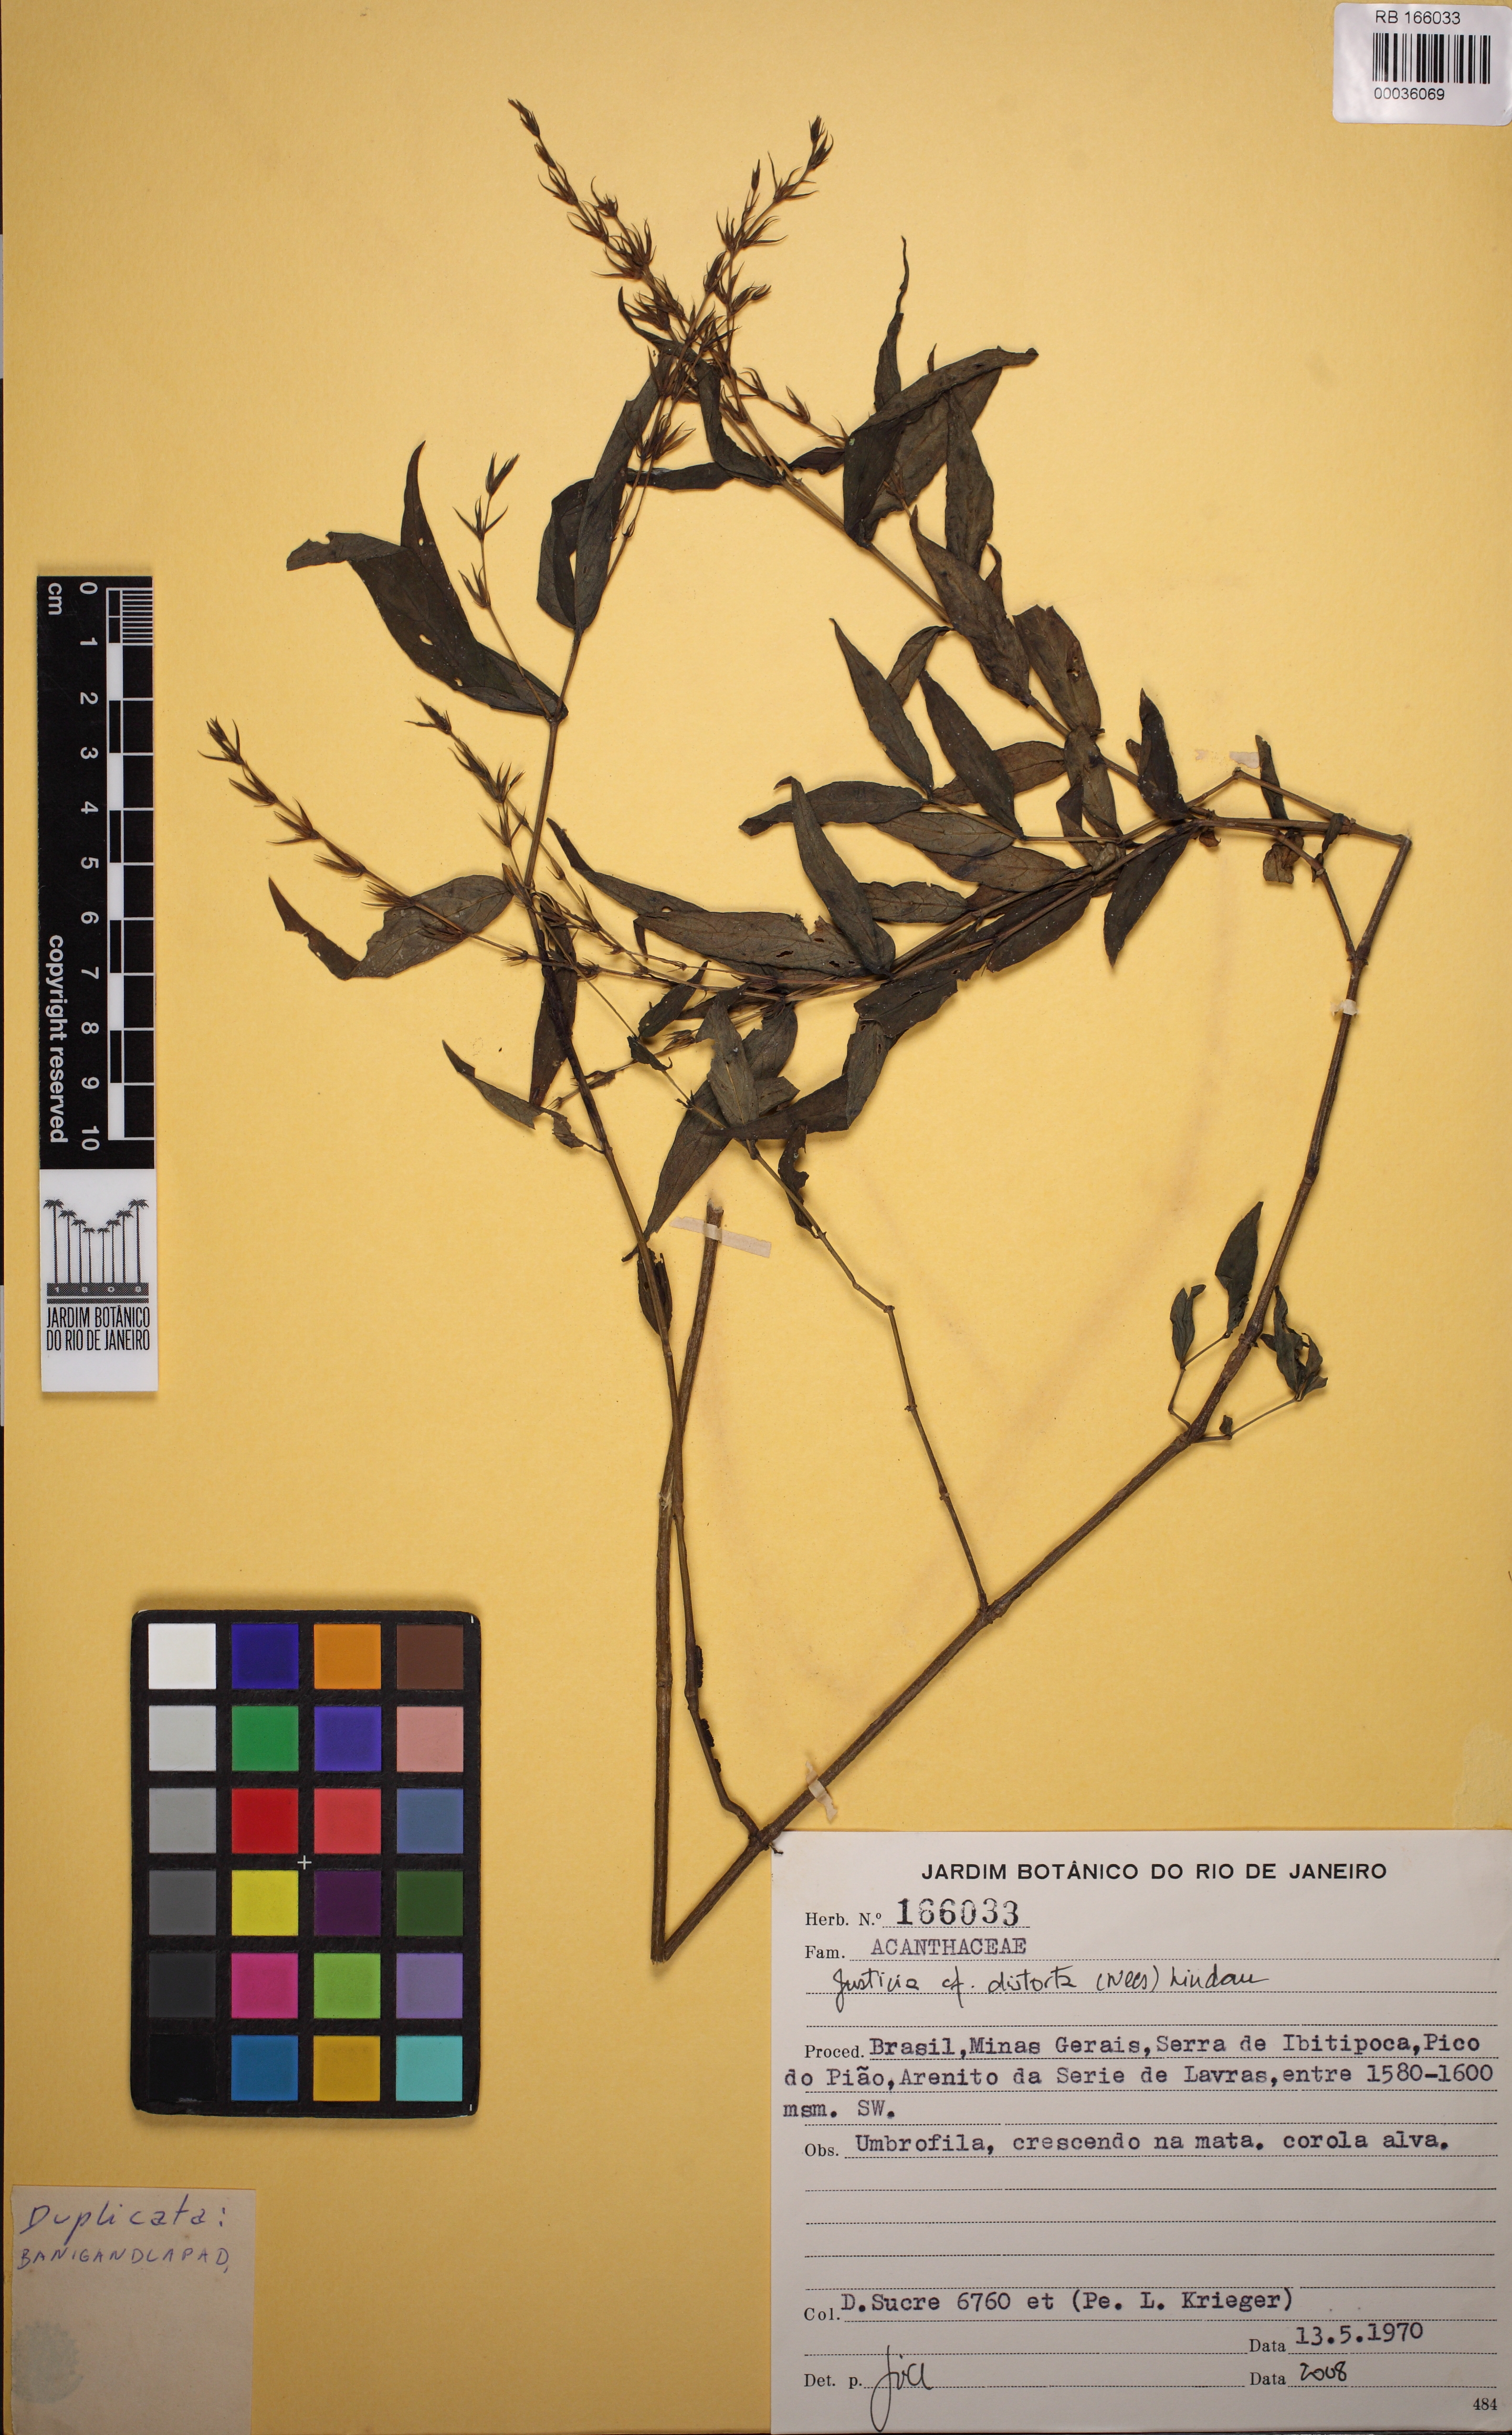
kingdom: Plantae
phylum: Tracheophyta
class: Magnoliopsida
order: Lamiales
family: Acanthaceae
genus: Dianthera
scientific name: Dianthera dasyclados
